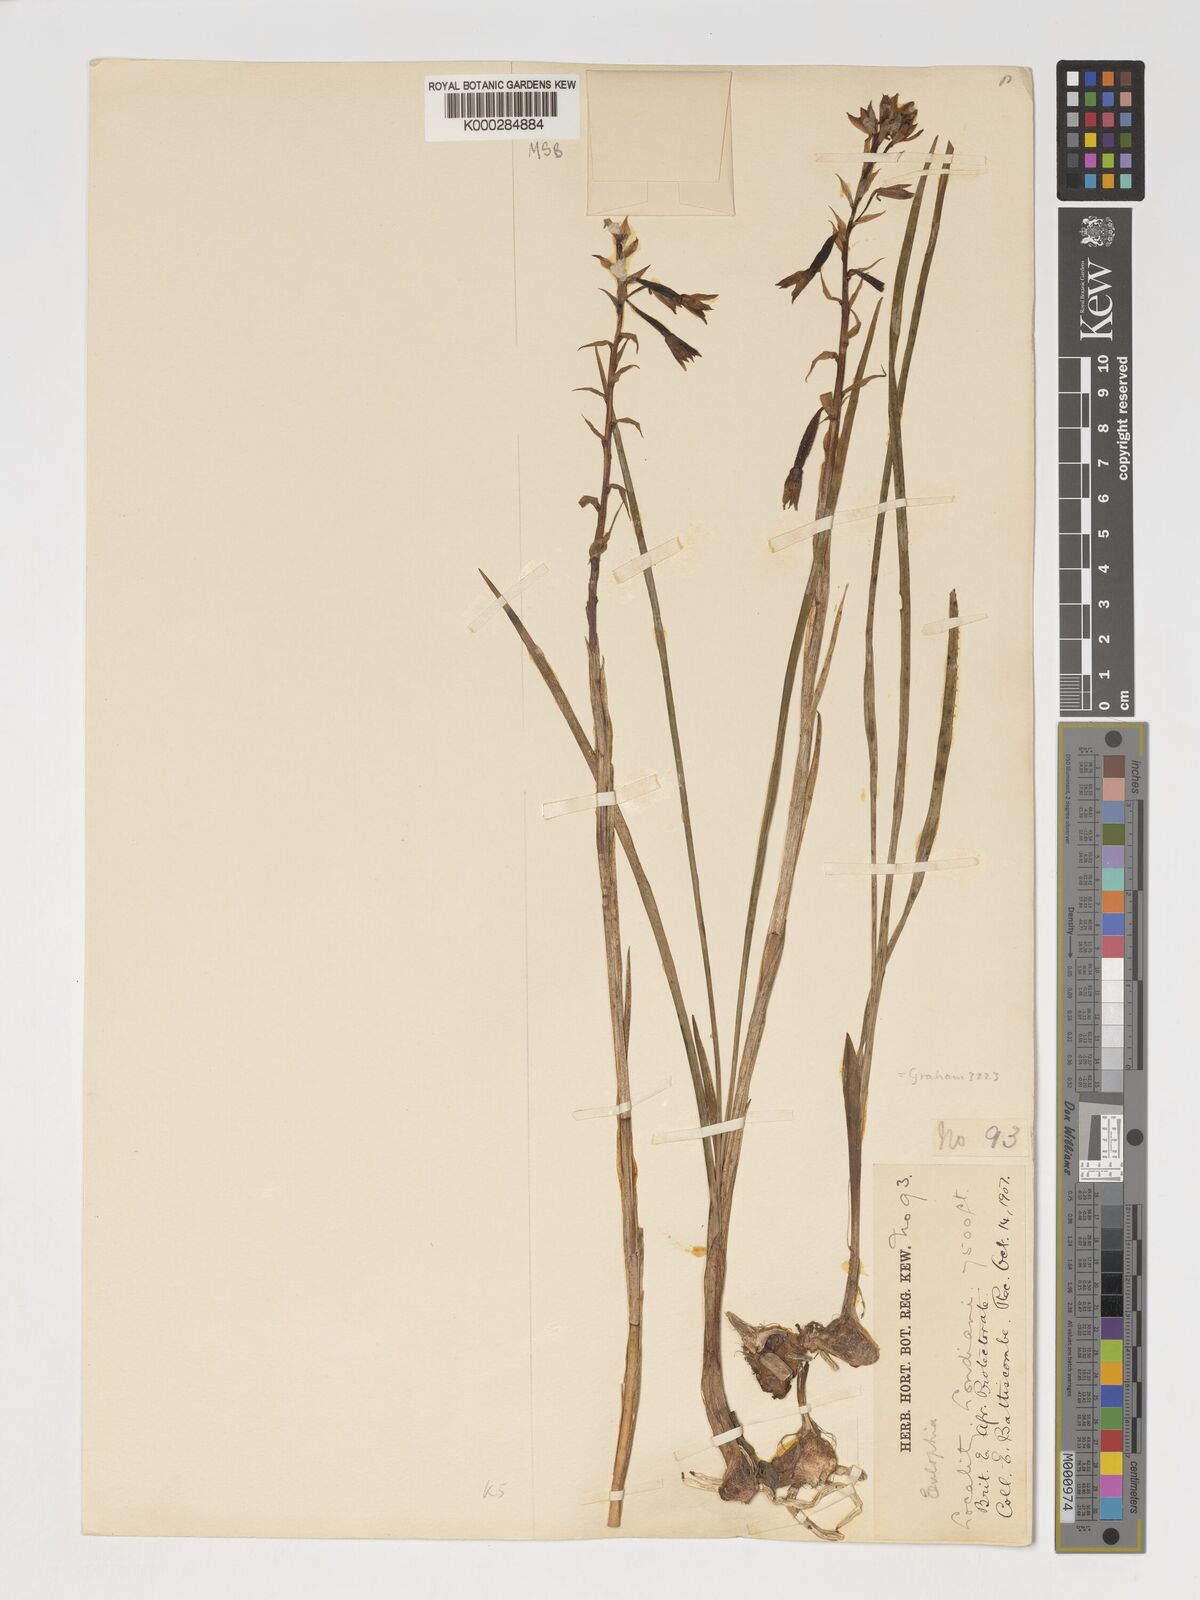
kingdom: Plantae
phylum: Tracheophyta
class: Liliopsida
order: Asparagales
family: Orchidaceae
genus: Eulophia
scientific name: Eulophia hians
